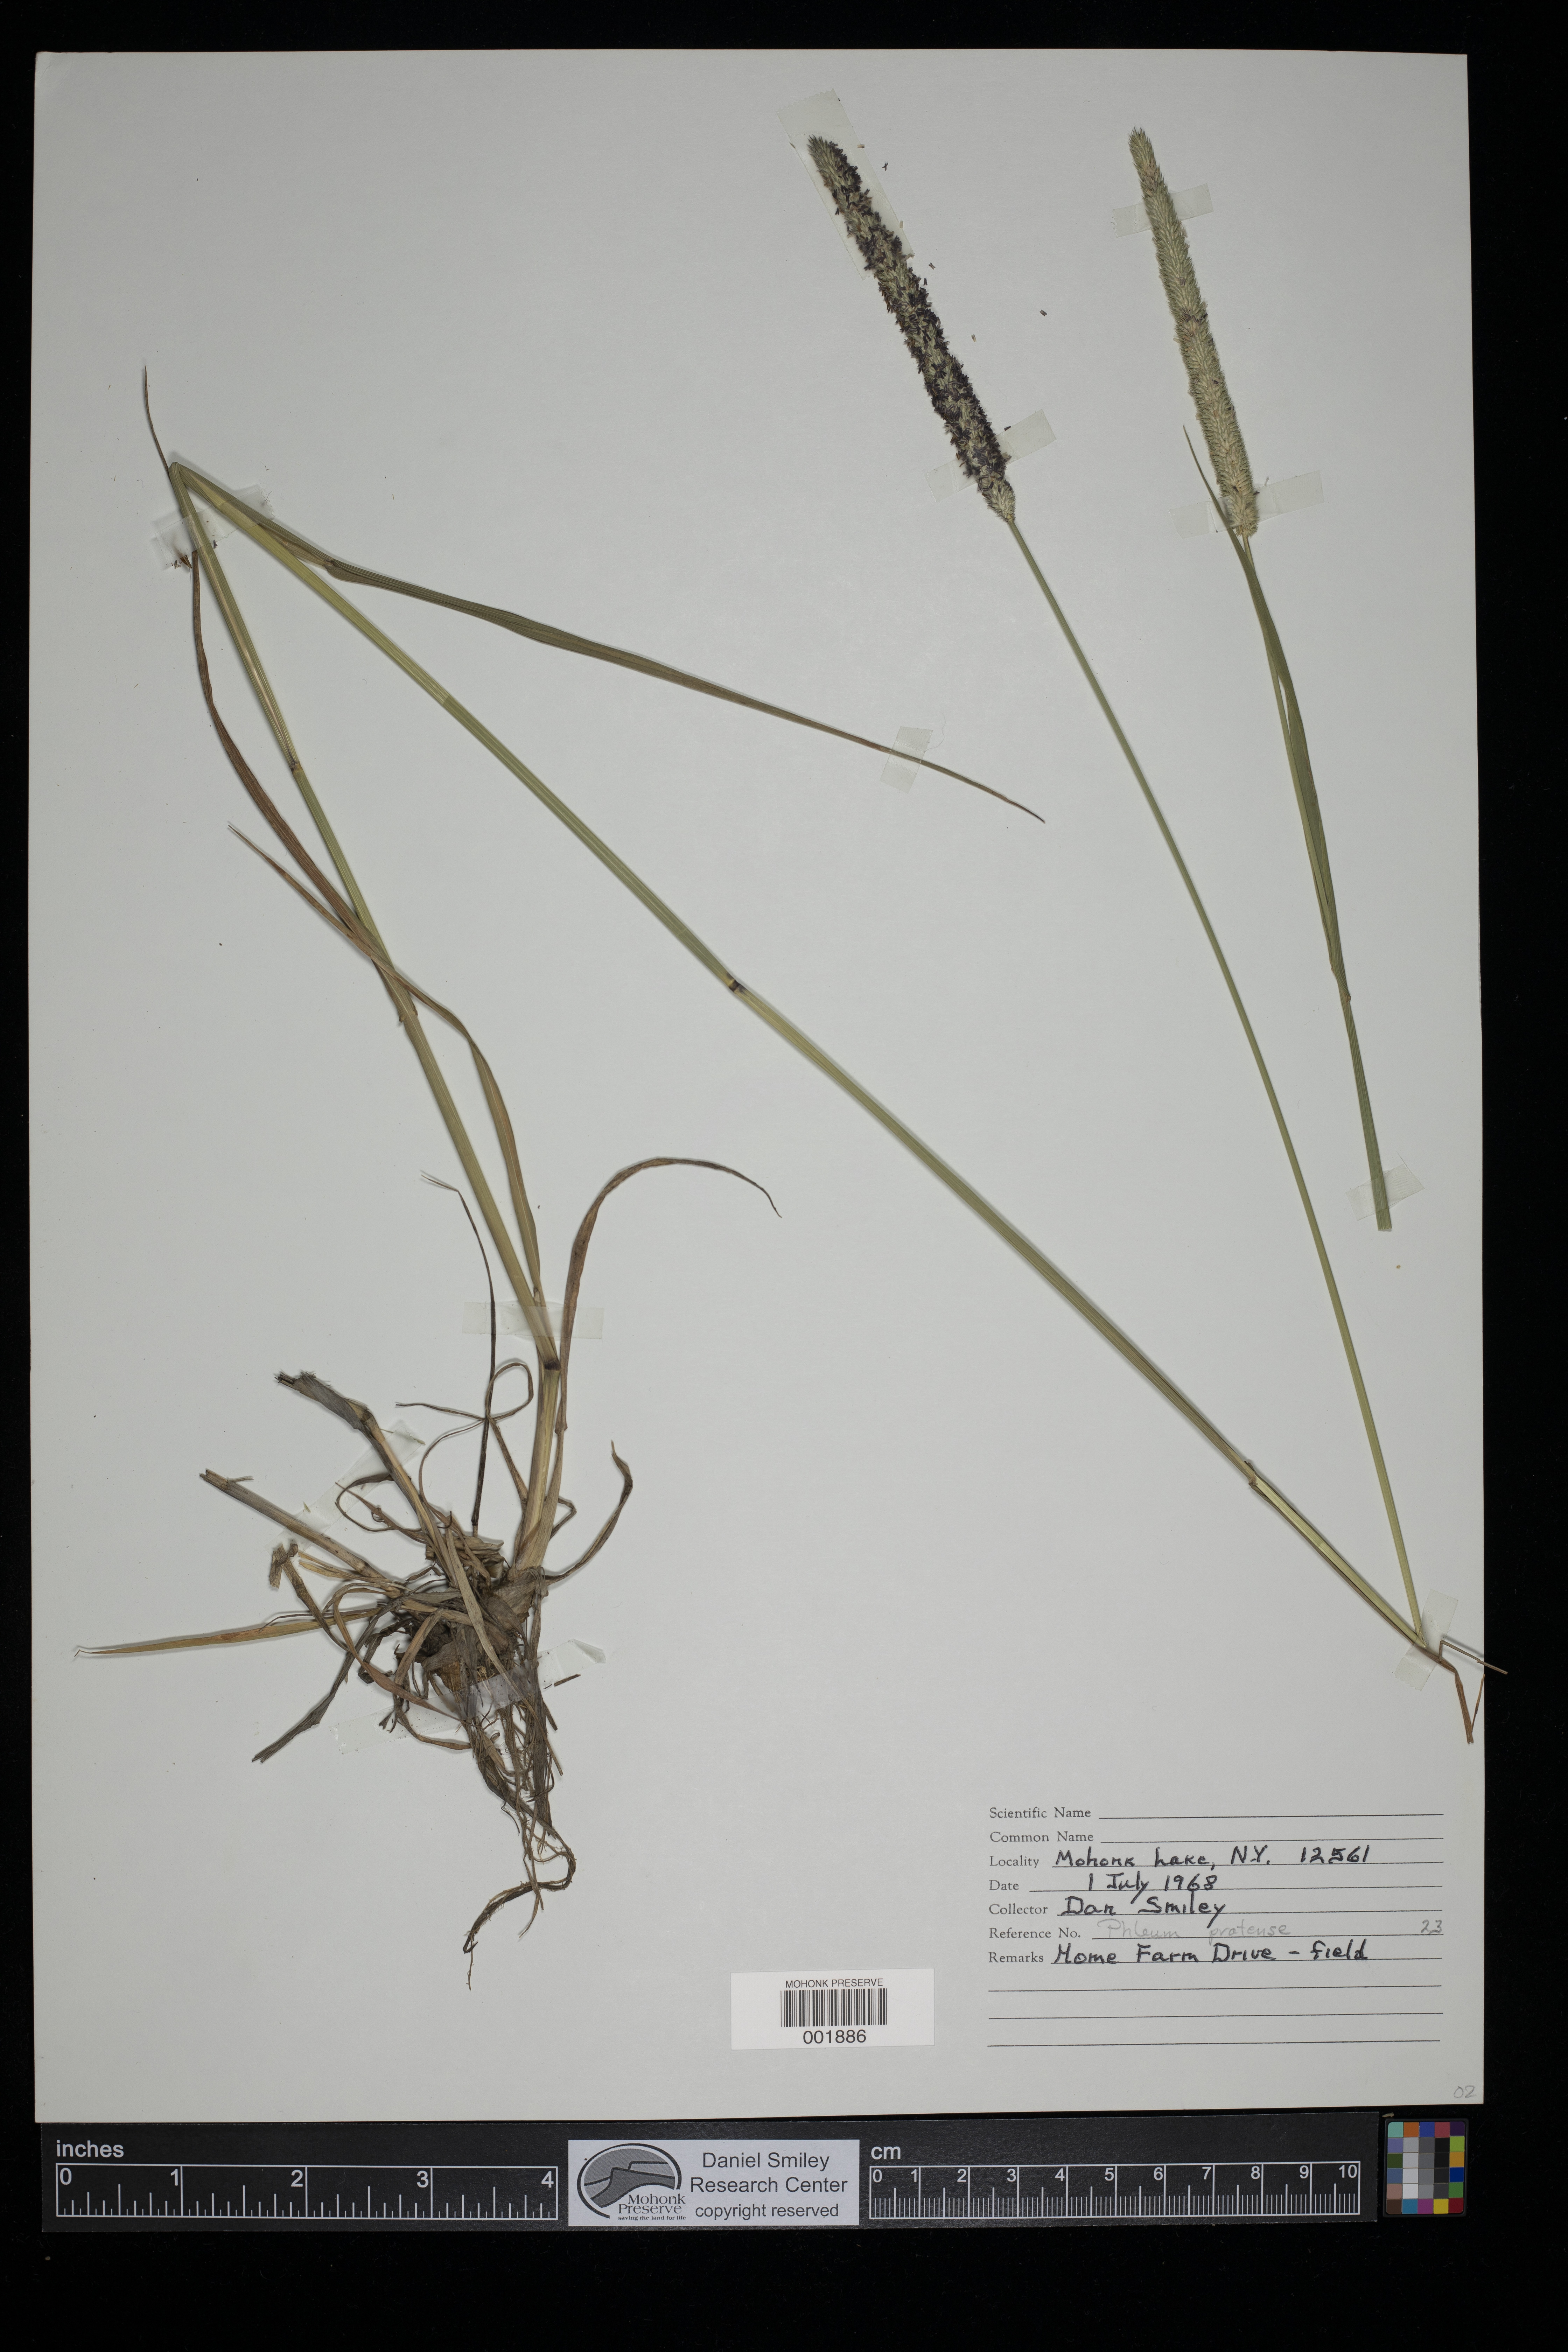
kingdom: Plantae
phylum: Tracheophyta
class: Liliopsida
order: Poales
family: Poaceae
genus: Phleum
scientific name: Phleum pratense
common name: Timothy grass
